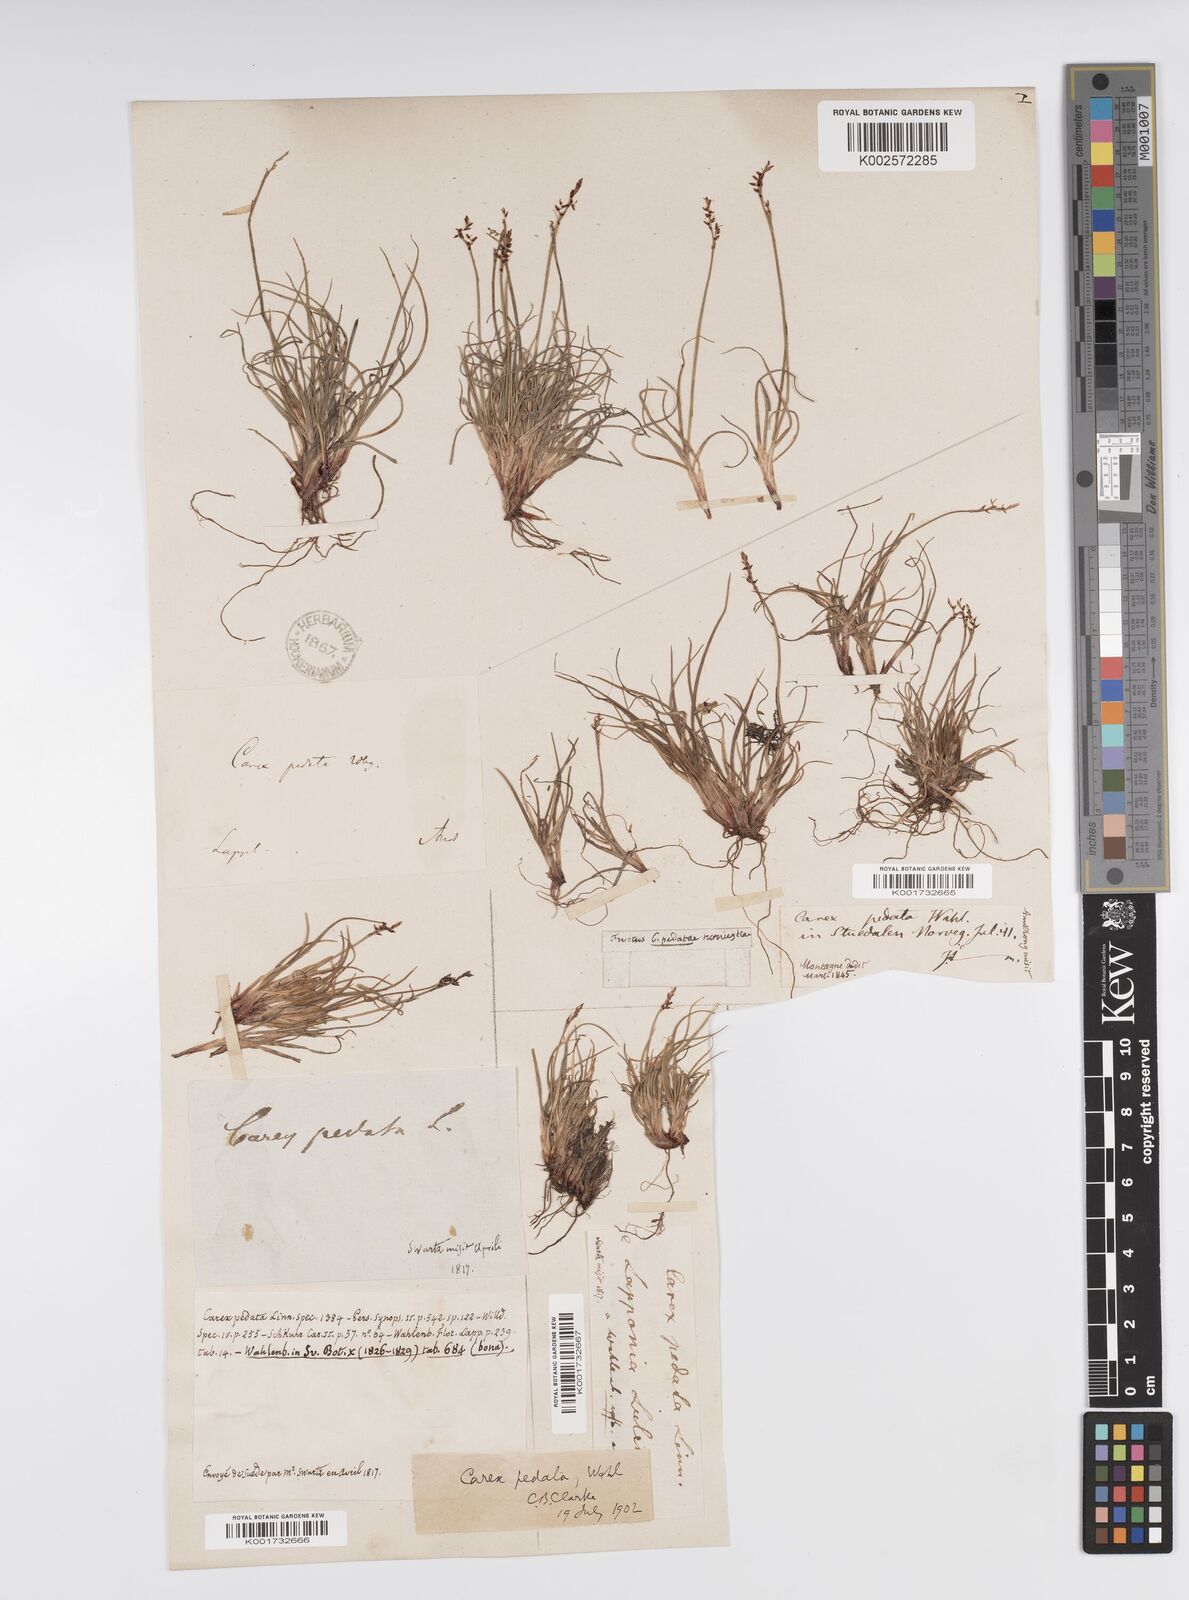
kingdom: Plantae
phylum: Tracheophyta
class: Liliopsida
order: Poales
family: Cyperaceae
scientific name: Cyperaceae
